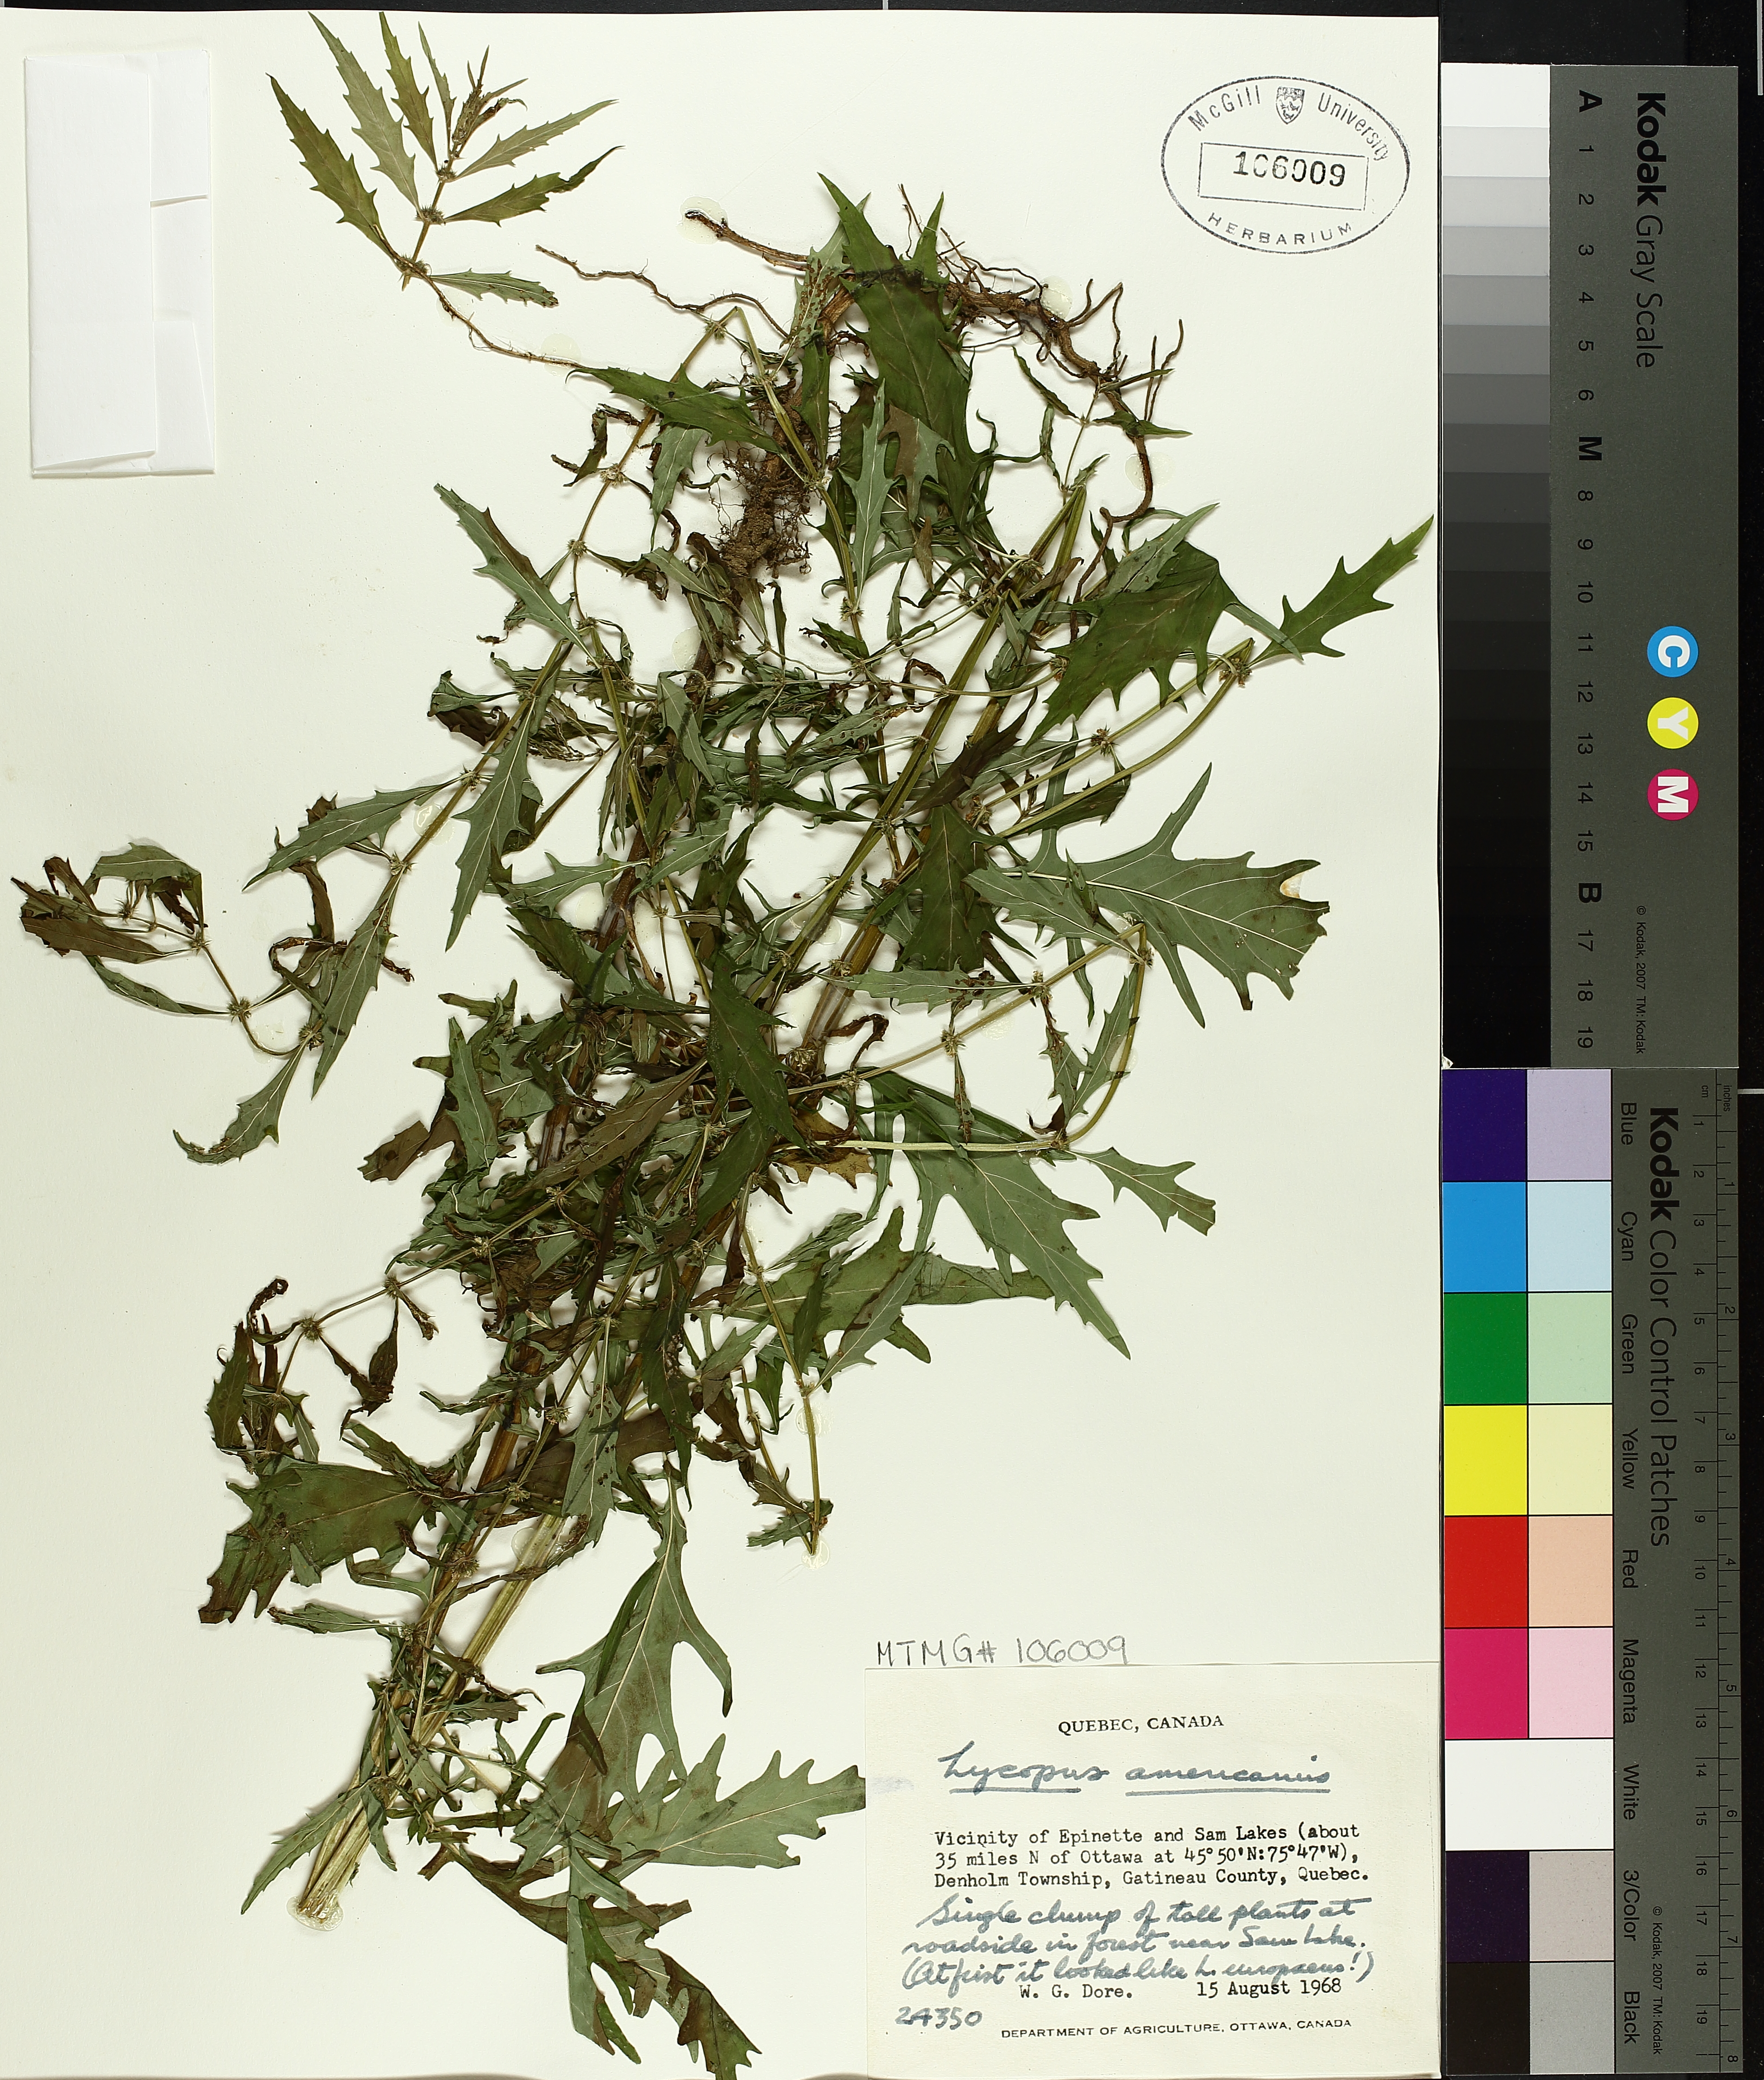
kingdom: Plantae
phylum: Tracheophyta
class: Magnoliopsida
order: Lamiales
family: Lamiaceae
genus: Lycopus
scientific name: Lycopus americanus
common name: American bugleweed
